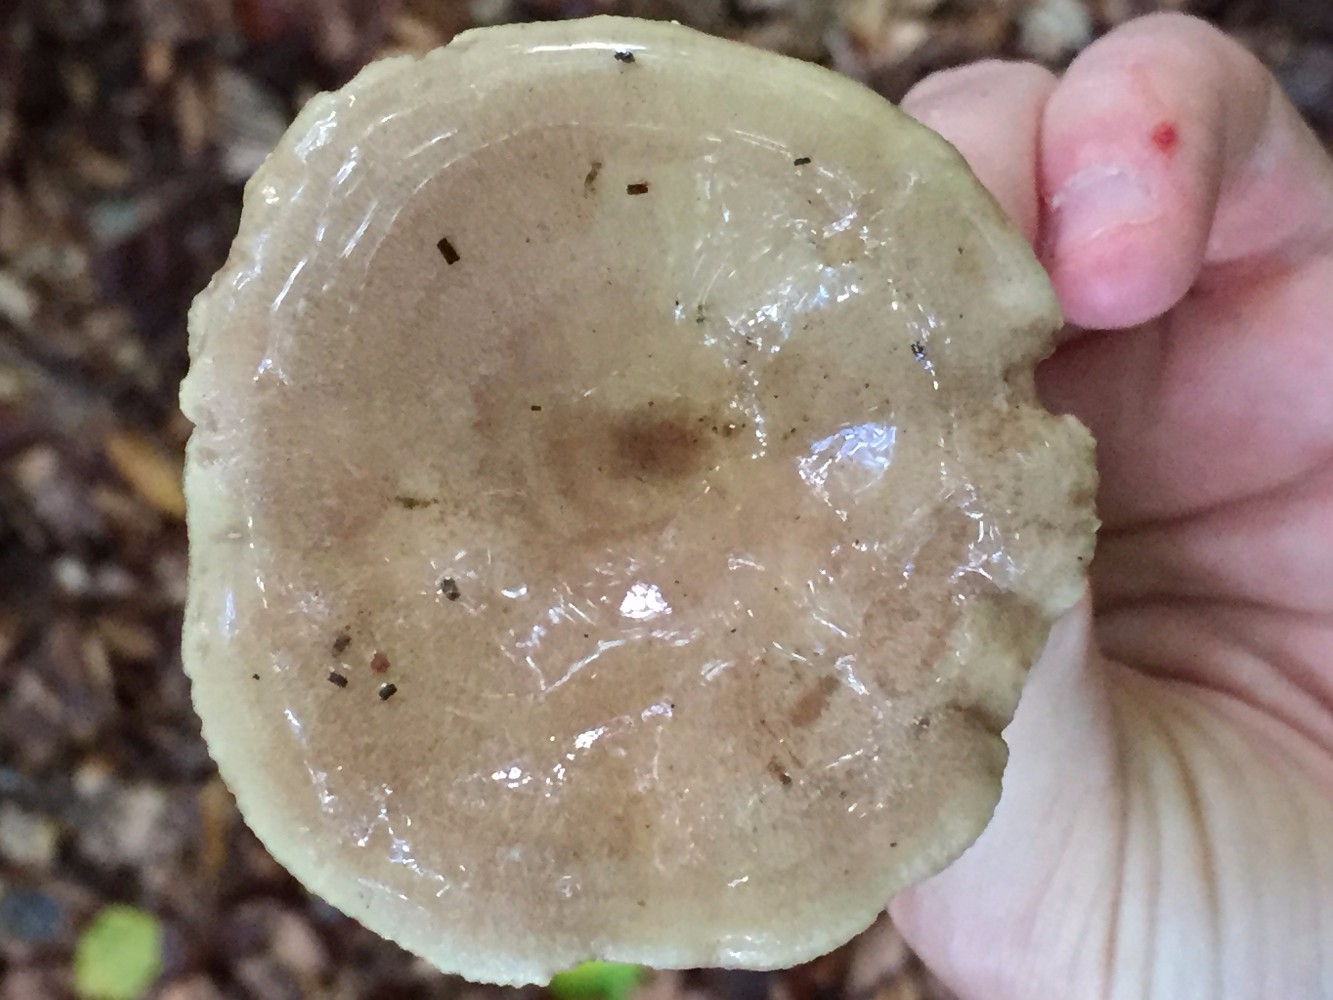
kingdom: Fungi
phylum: Basidiomycota
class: Agaricomycetes
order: Russulales
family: Russulaceae
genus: Lactarius
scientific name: Lactarius blennius
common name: dråbeplettet mælkehat
